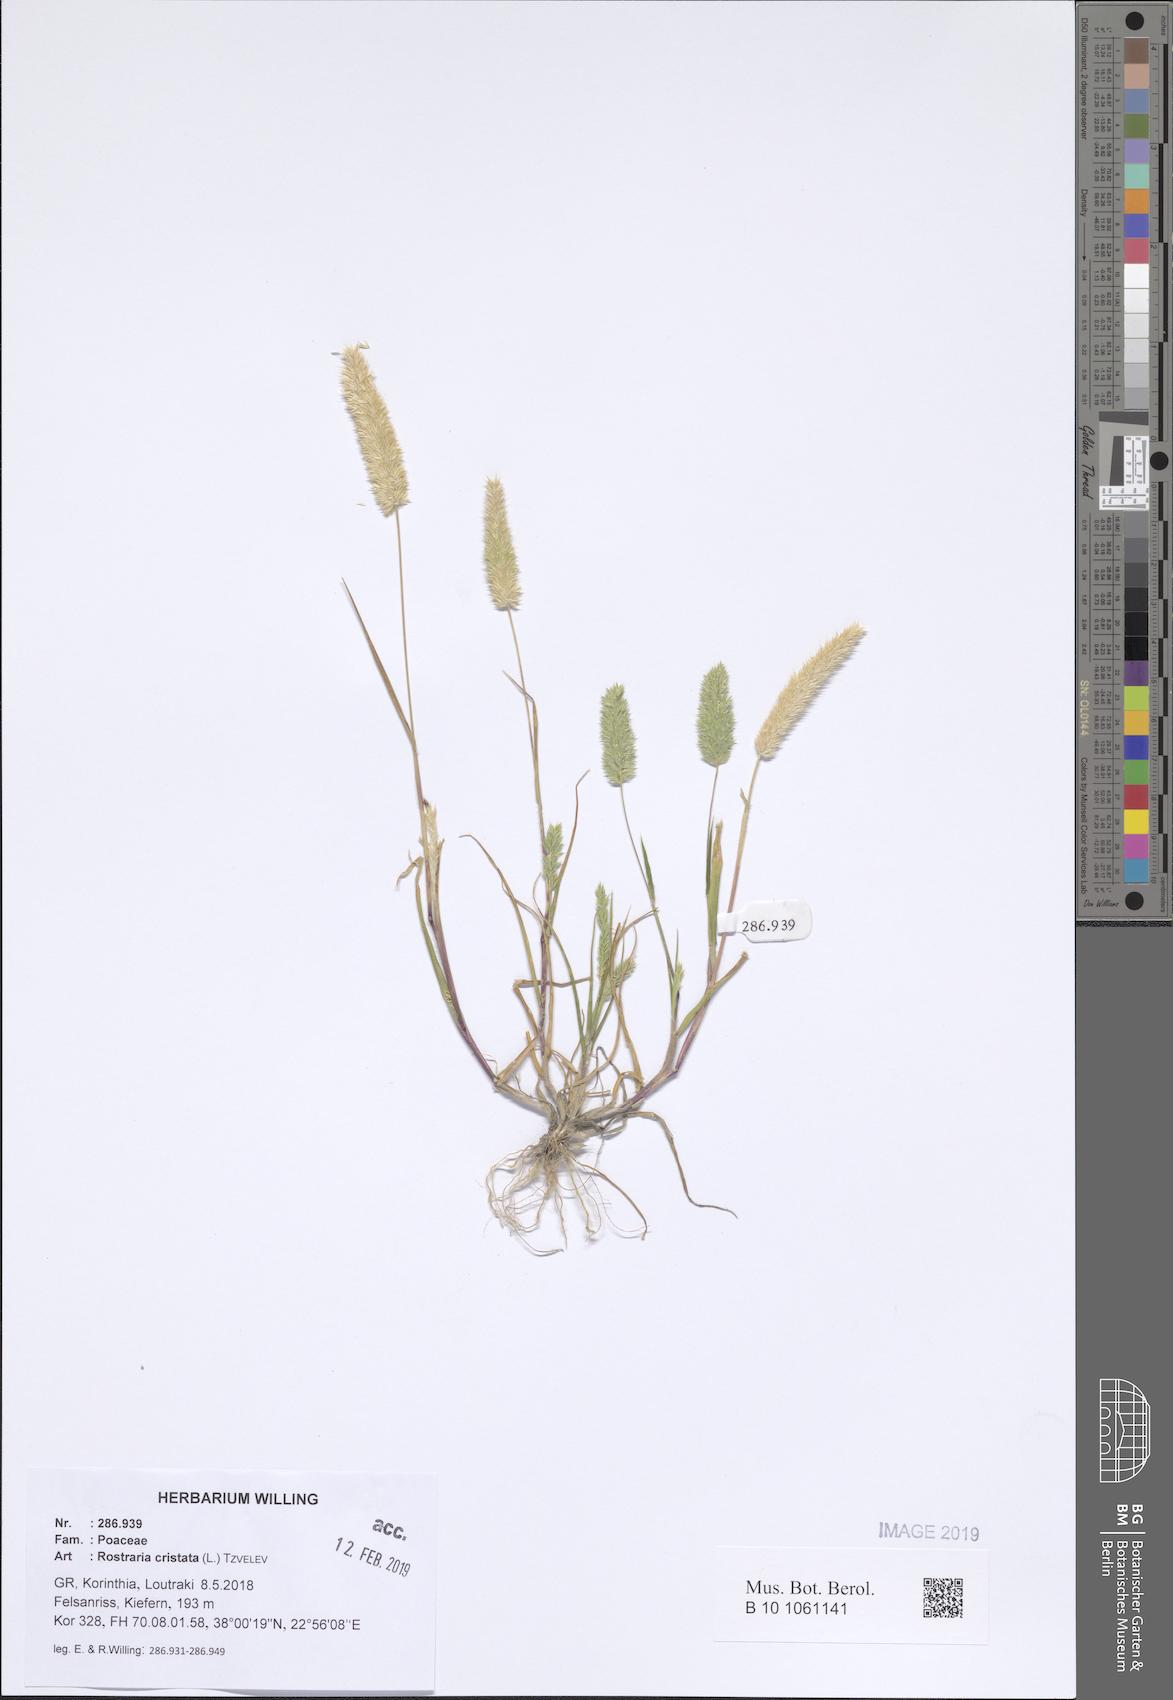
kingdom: Plantae
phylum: Tracheophyta
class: Liliopsida
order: Poales
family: Poaceae
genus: Rostraria
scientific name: Rostraria cristata
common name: Mediterranean hair-grass
